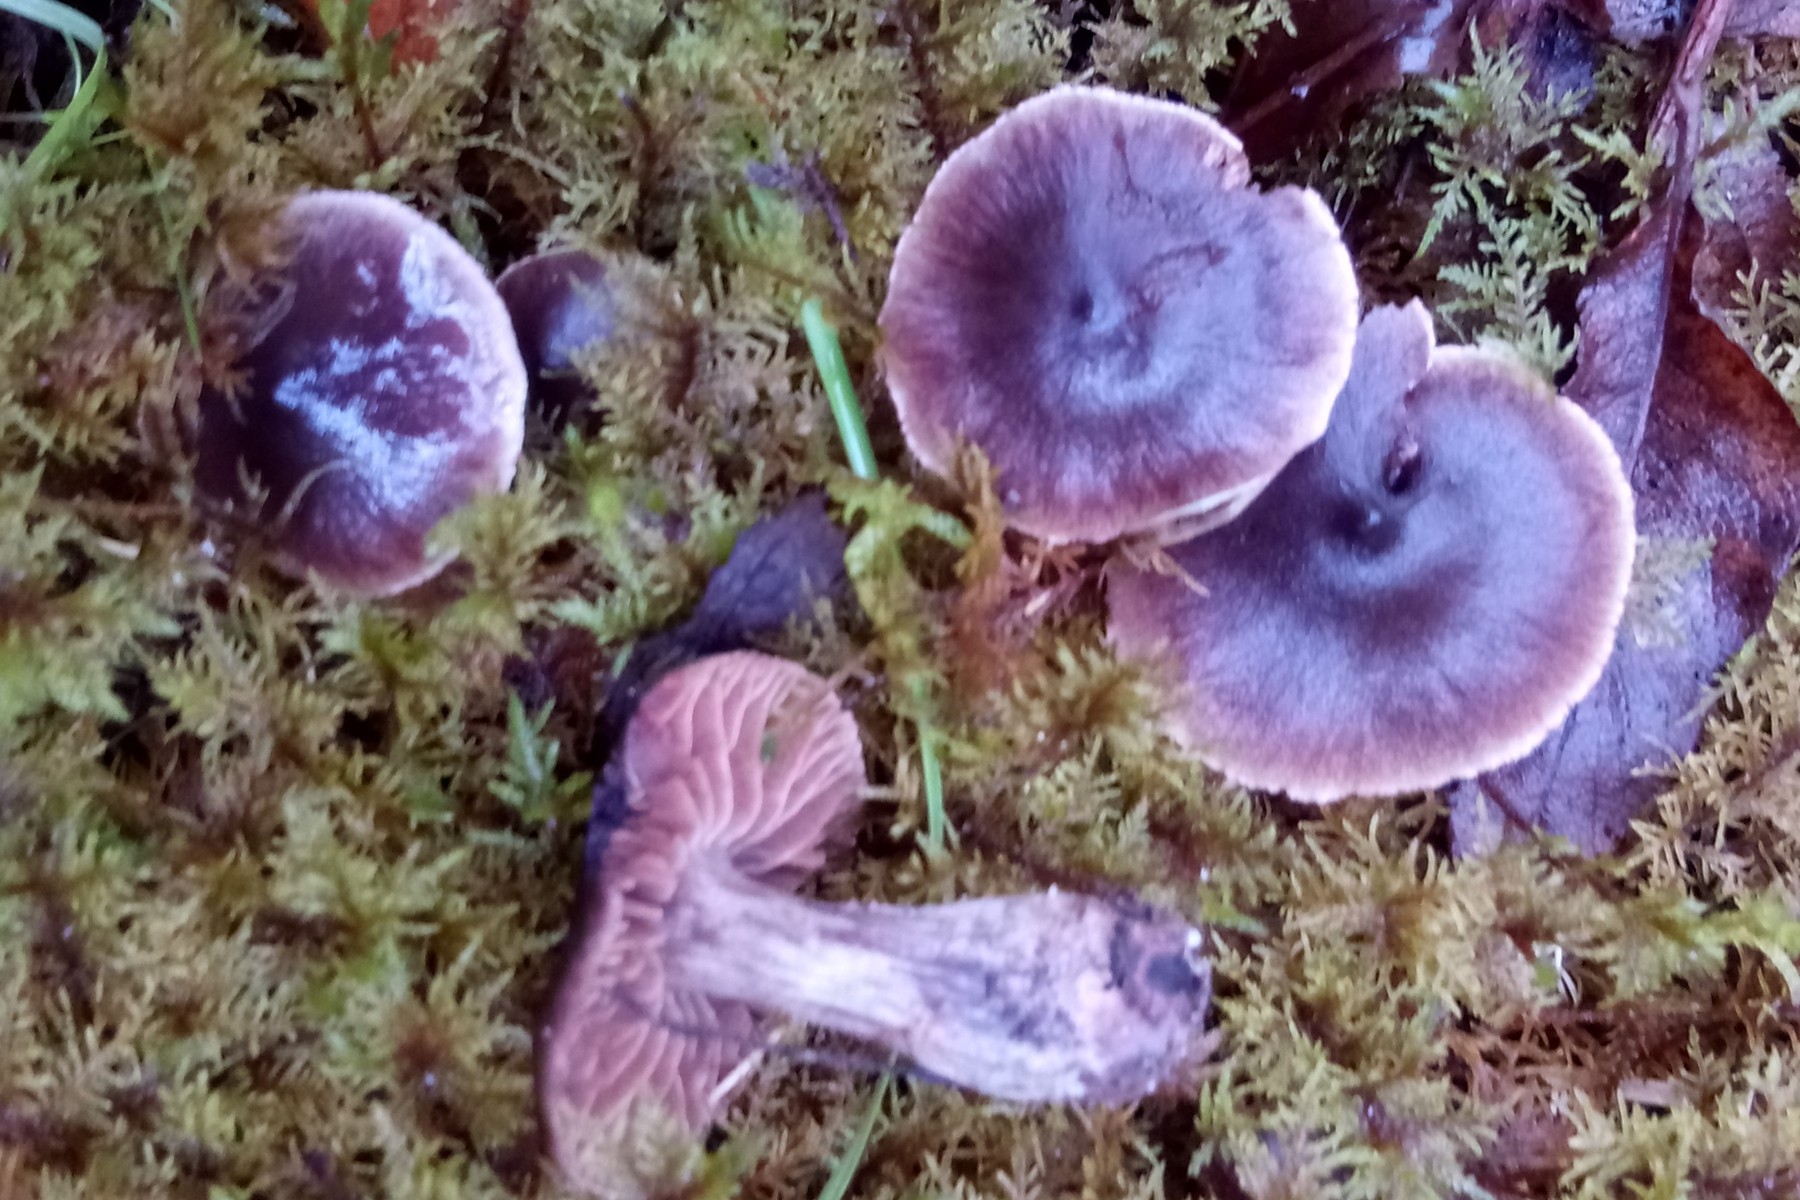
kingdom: Fungi
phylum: Basidiomycota
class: Agaricomycetes
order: Agaricales
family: Cortinariaceae
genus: Cortinarius
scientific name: Cortinarius
